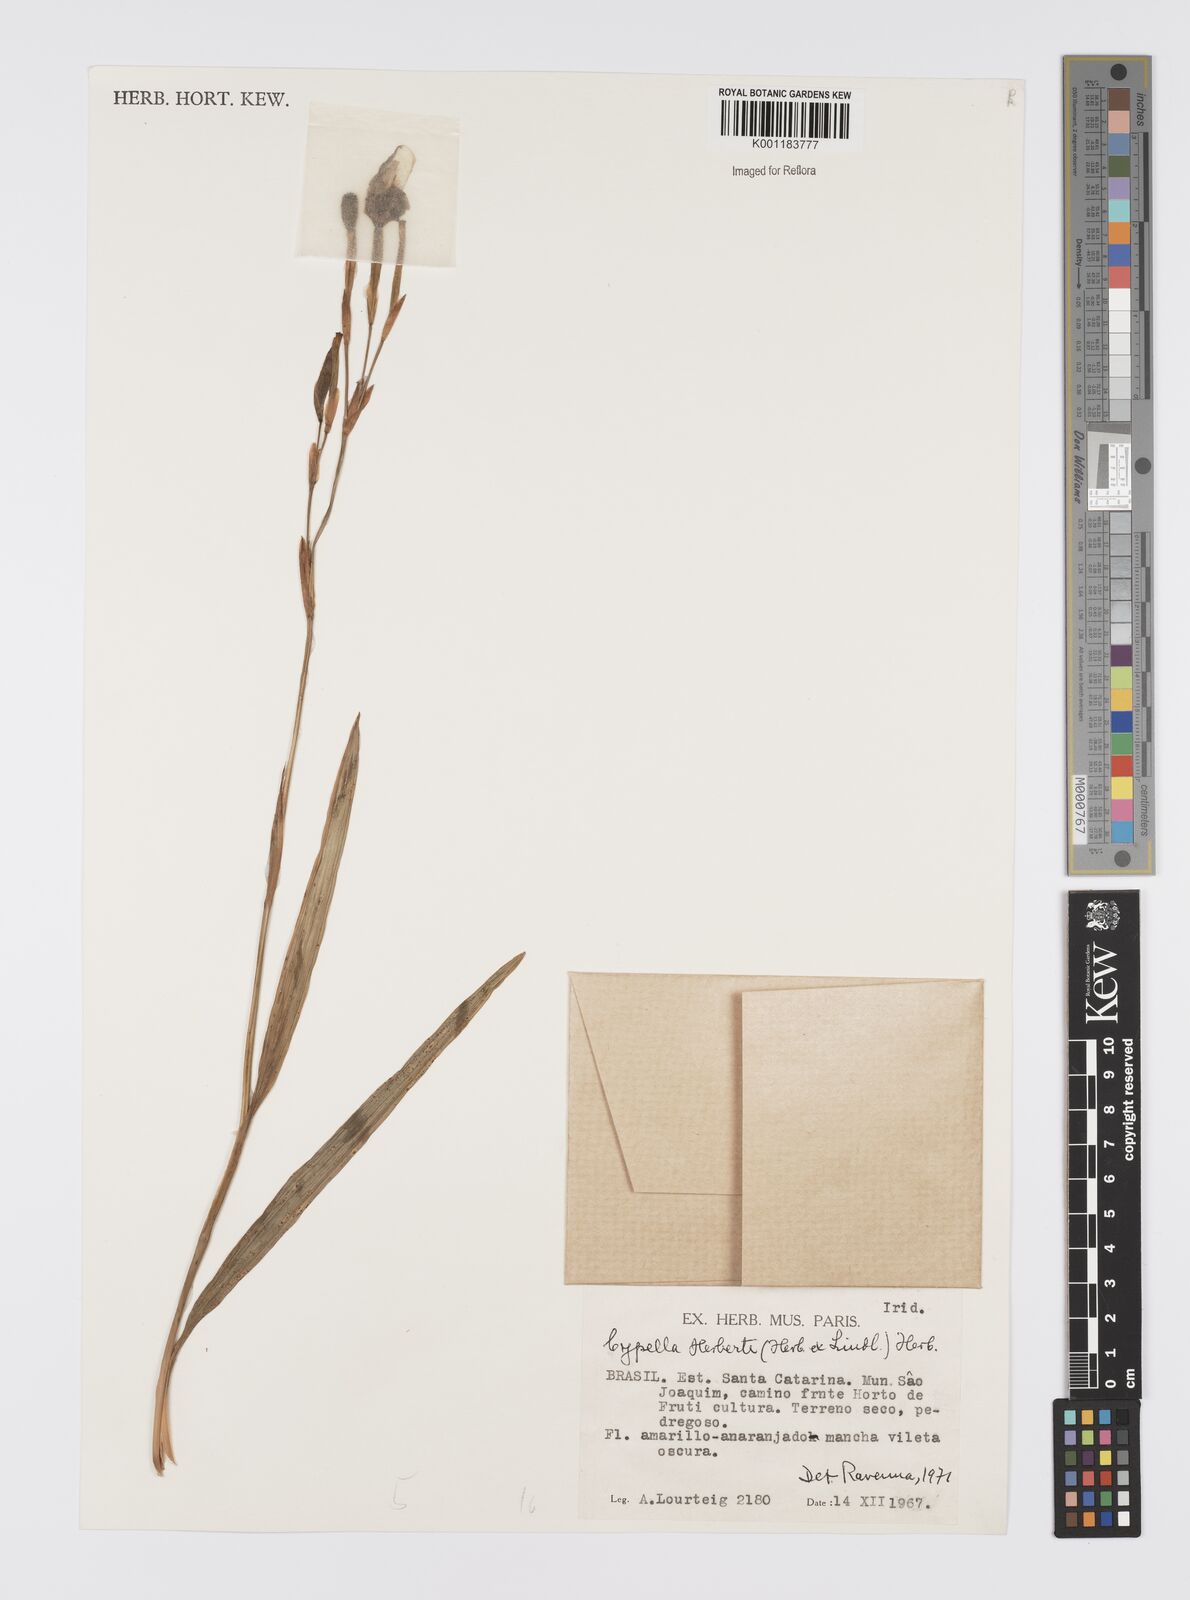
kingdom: Plantae
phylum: Tracheophyta
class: Liliopsida
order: Asparagales
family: Iridaceae
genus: Cypella
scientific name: Cypella herbertii
